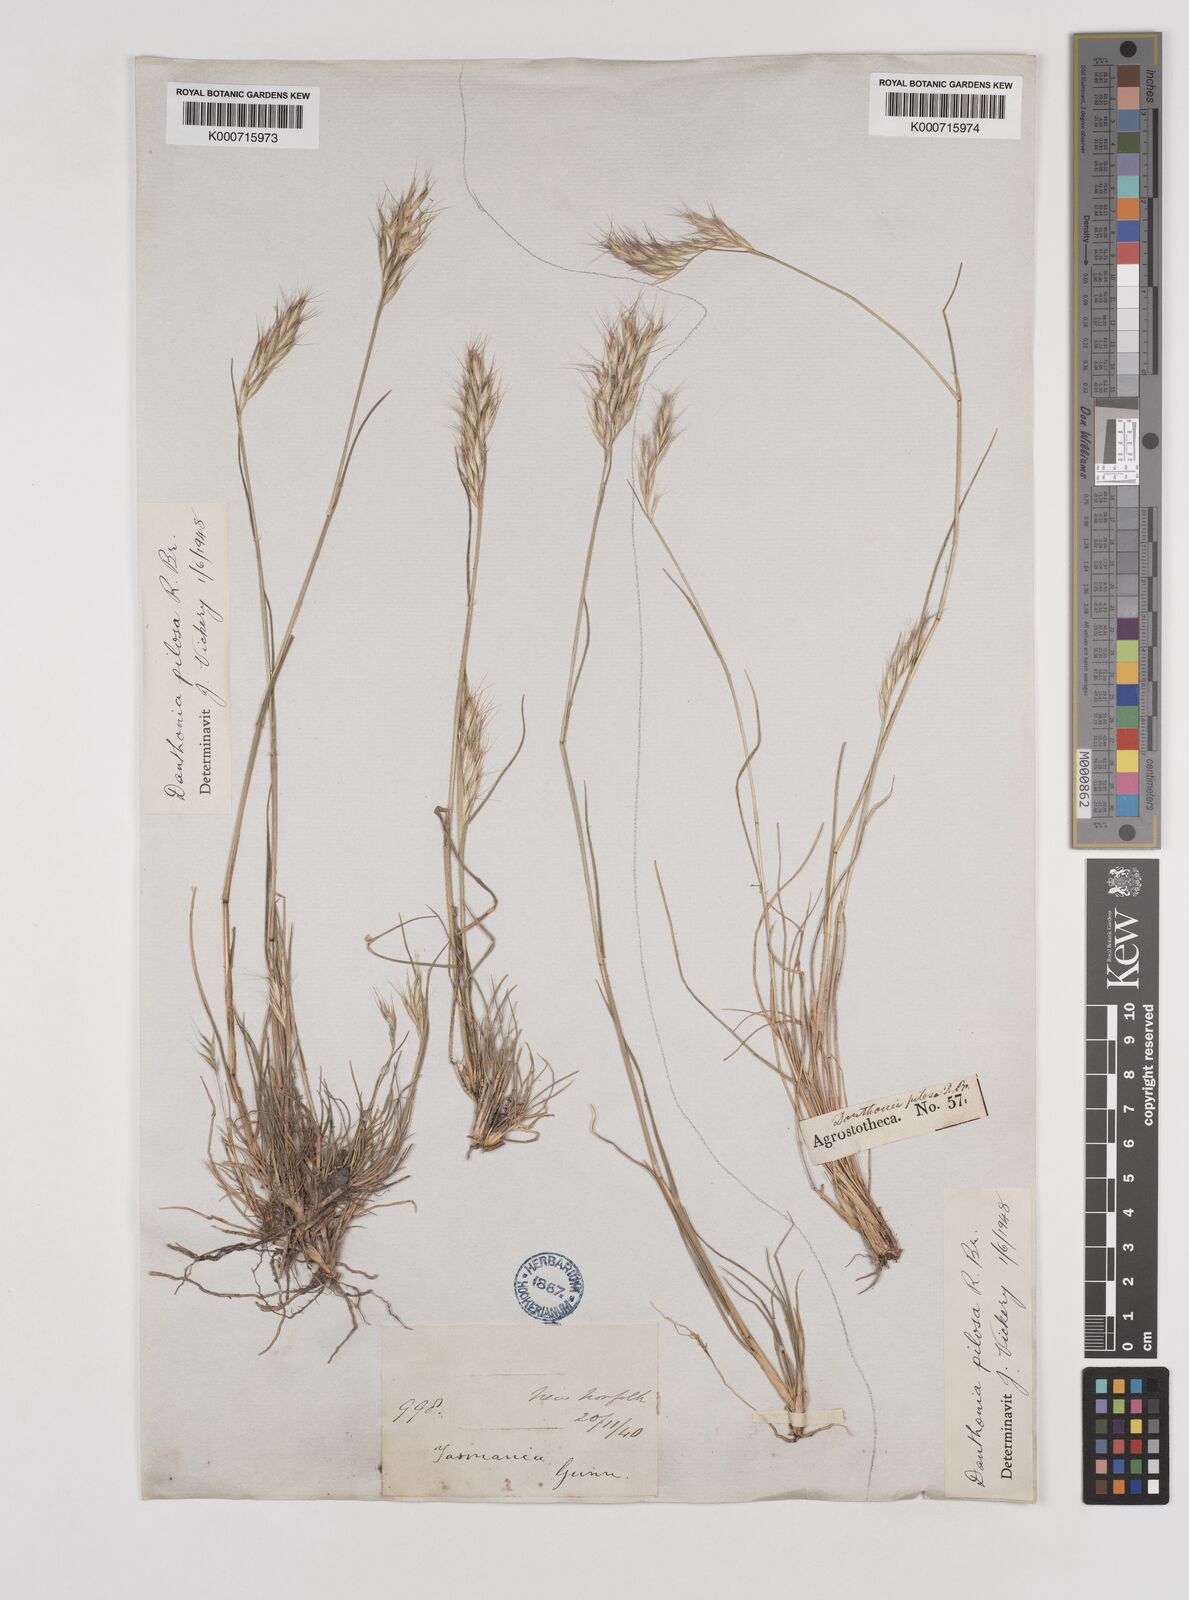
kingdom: Plantae
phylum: Tracheophyta
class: Liliopsida
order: Poales
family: Poaceae
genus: Rytidosperma
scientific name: Rytidosperma pilosum
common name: Hairy wallaby grass
